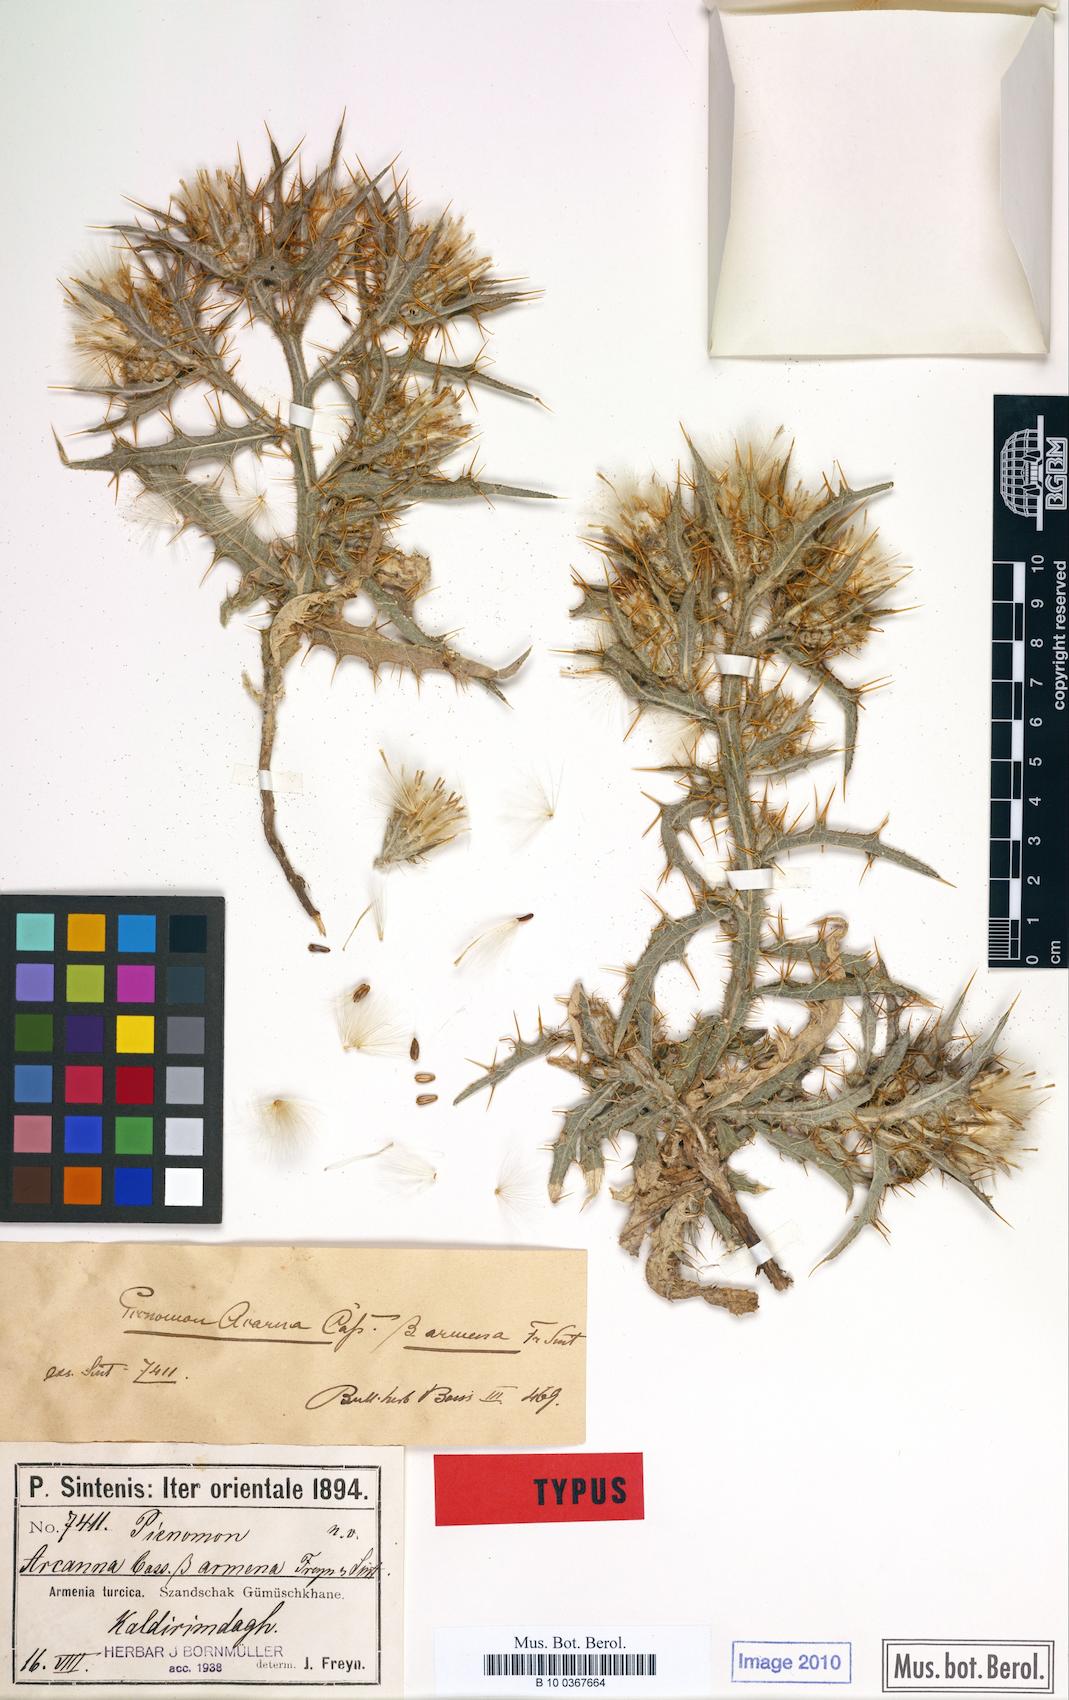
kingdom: Plantae
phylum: Tracheophyta
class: Magnoliopsida
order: Asterales
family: Asteraceae
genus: Picnomon
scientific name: Picnomon acarna
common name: Soldier thistle
